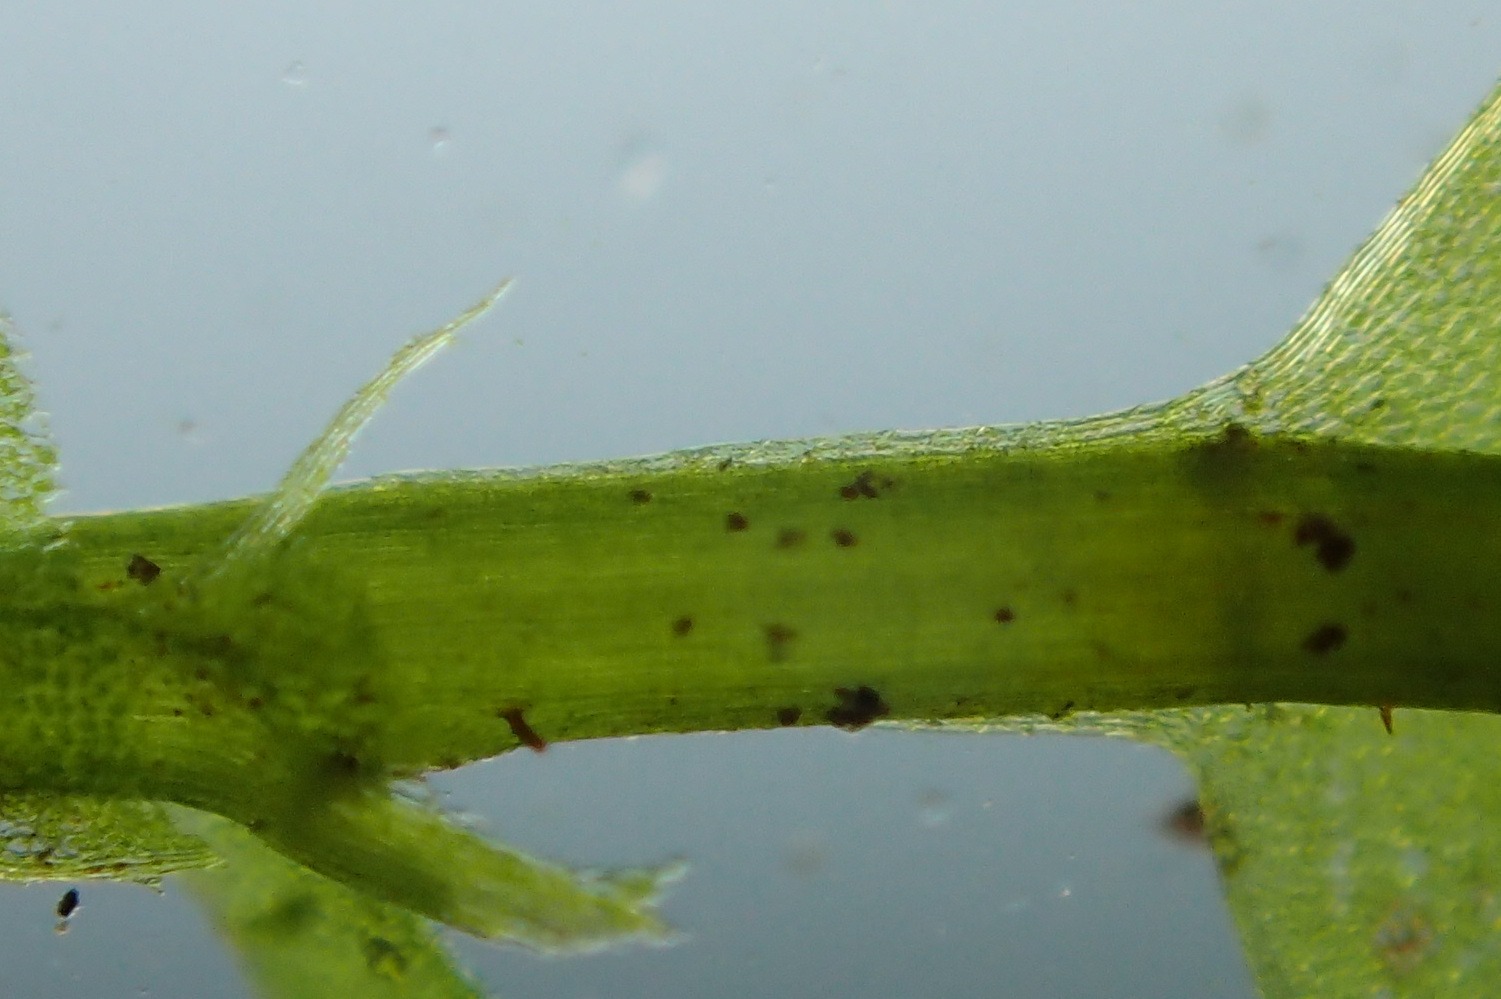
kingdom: Plantae
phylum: Bryophyta
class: Bryopsida
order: Bryales
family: Mniaceae
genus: Plagiomnium
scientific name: Plagiomnium affine
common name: Fælled-krybstjerne
